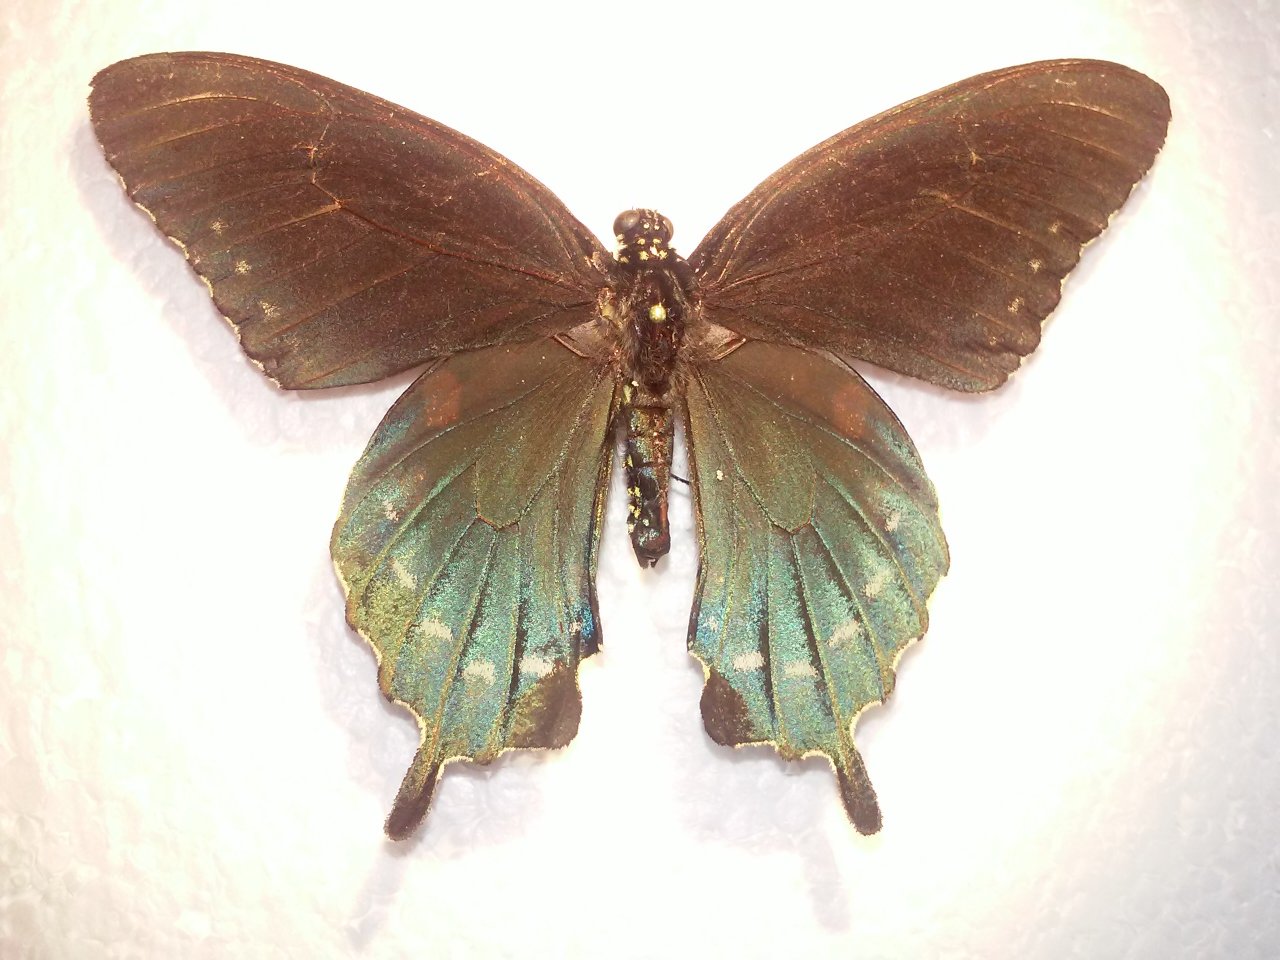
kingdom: Animalia
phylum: Arthropoda
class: Insecta
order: Lepidoptera
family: Papilionidae
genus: Battus
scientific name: Battus philenor
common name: Pipevine Swallowtail
